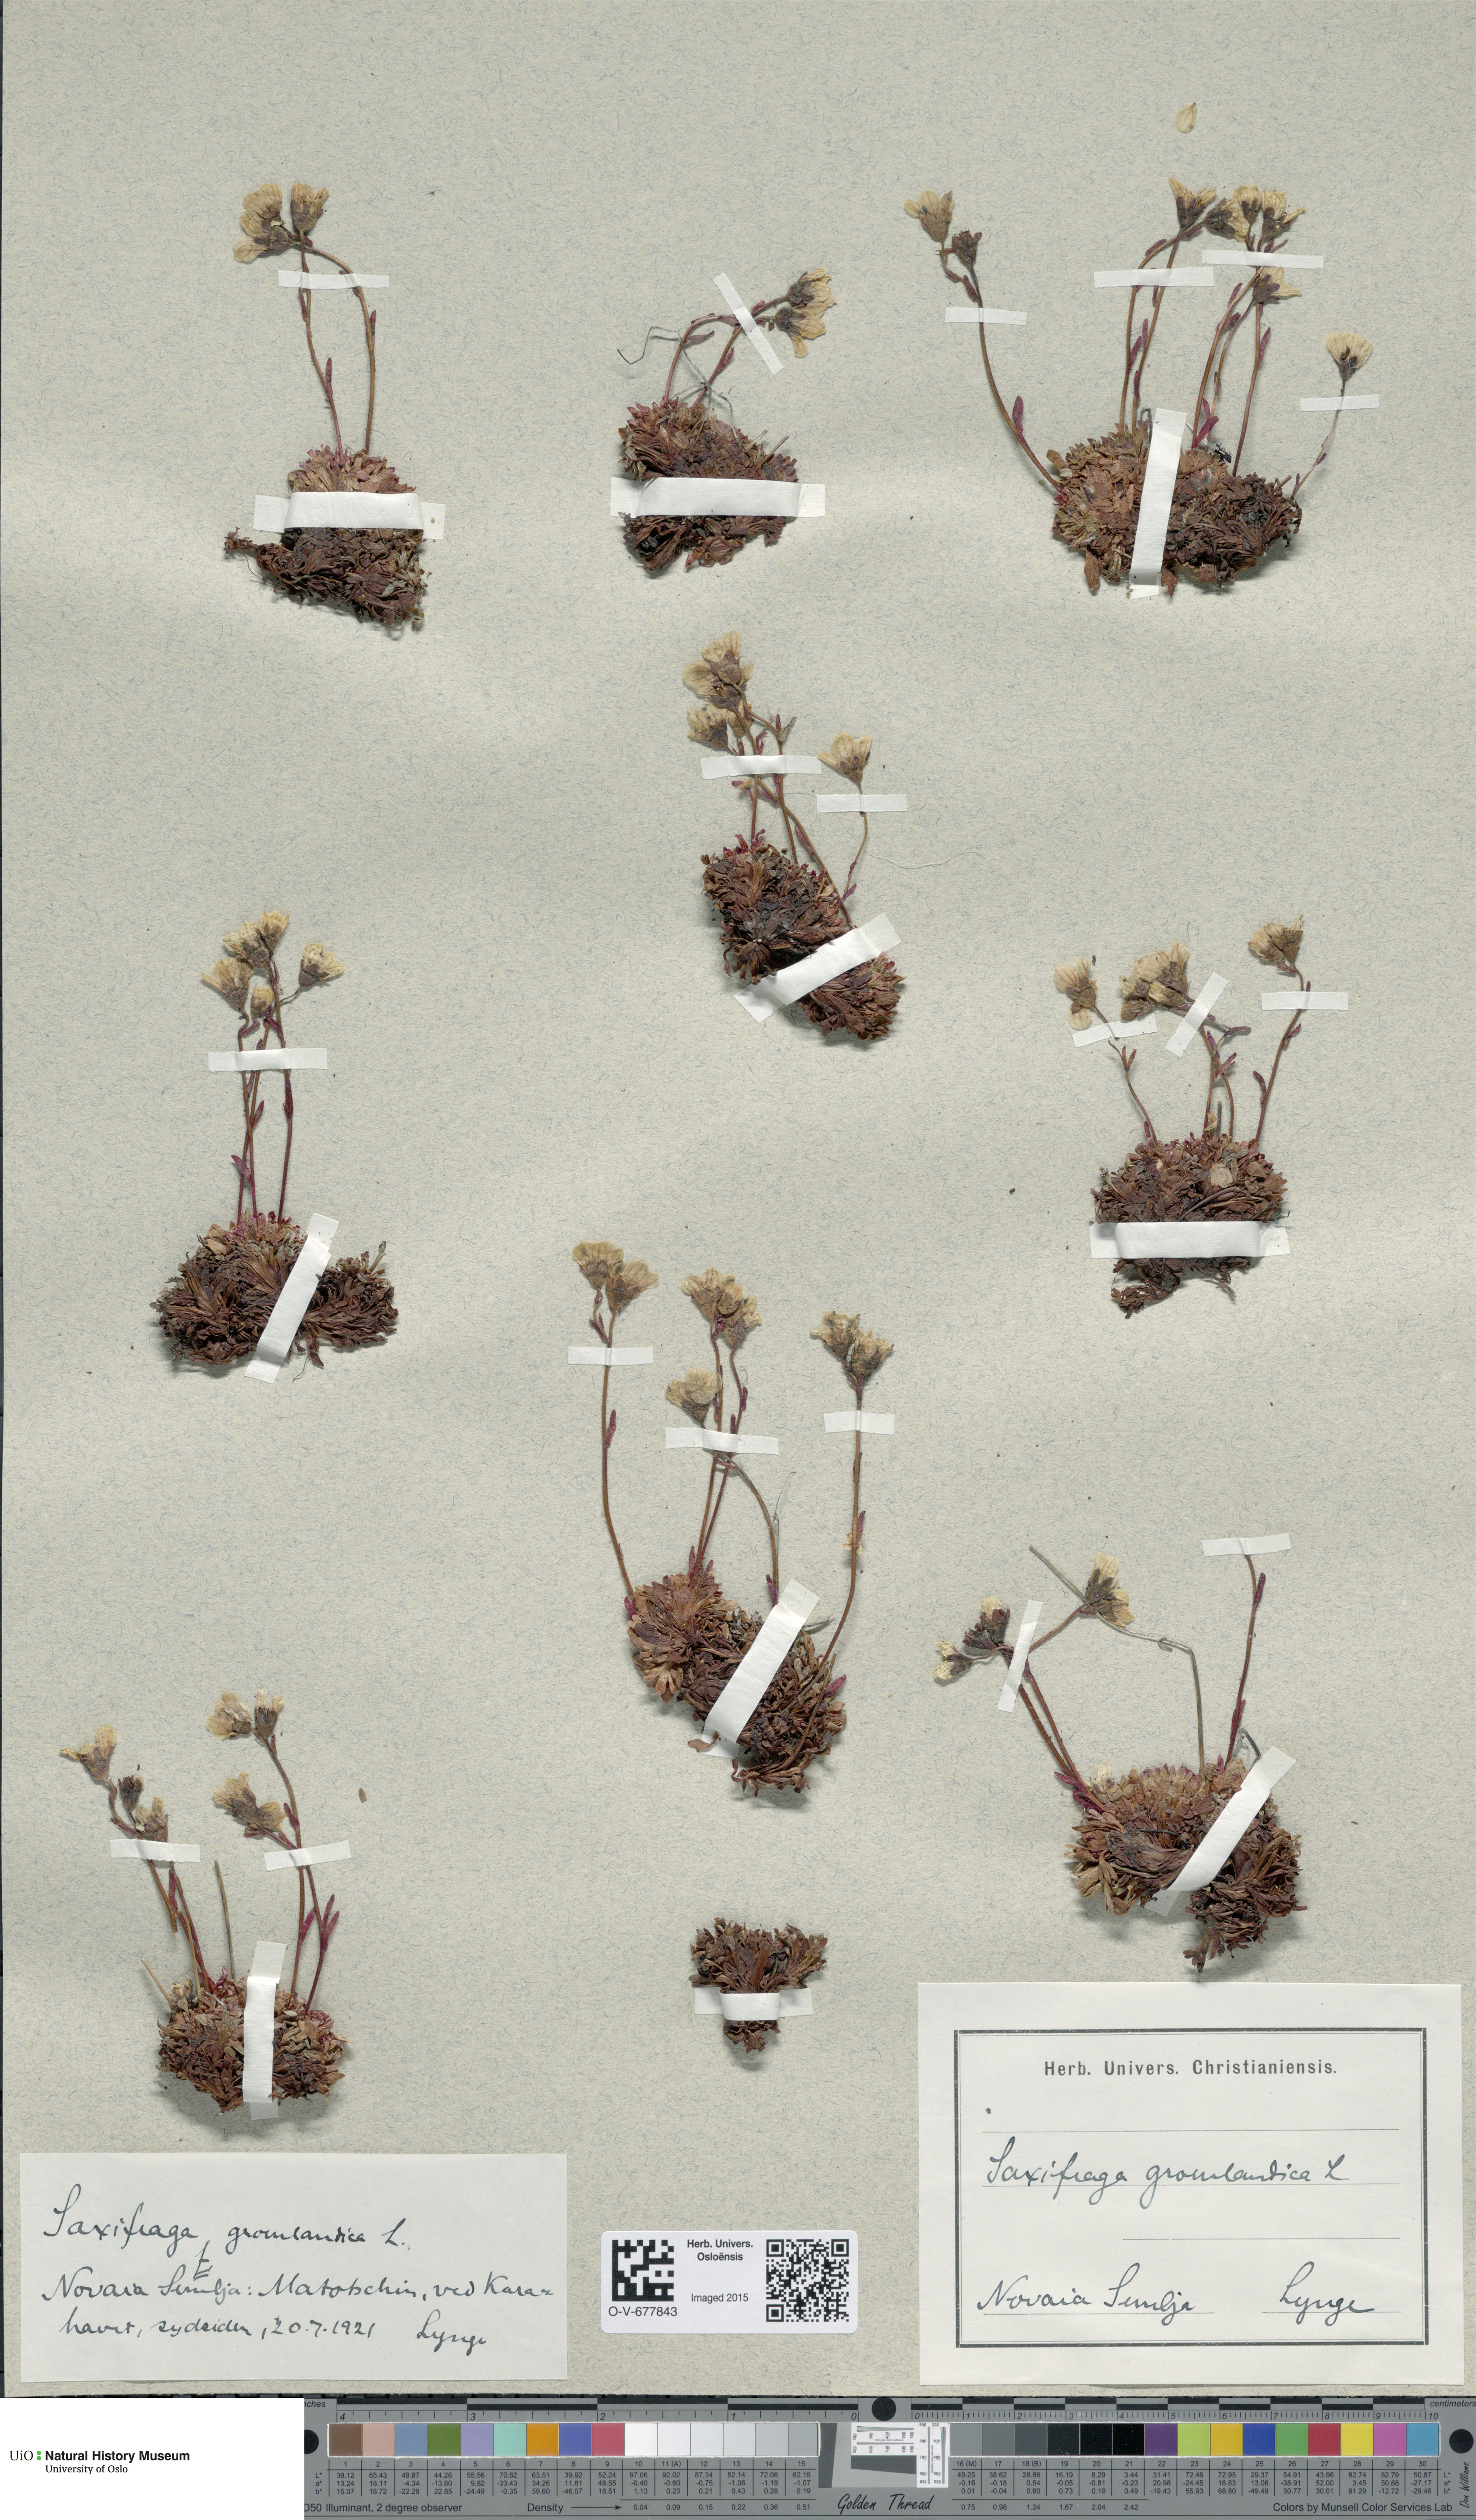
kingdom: Plantae
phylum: Tracheophyta
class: Magnoliopsida
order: Saxifragales
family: Saxifragaceae
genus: Saxifraga
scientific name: Saxifraga cespitosa
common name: Tufted saxifrage
